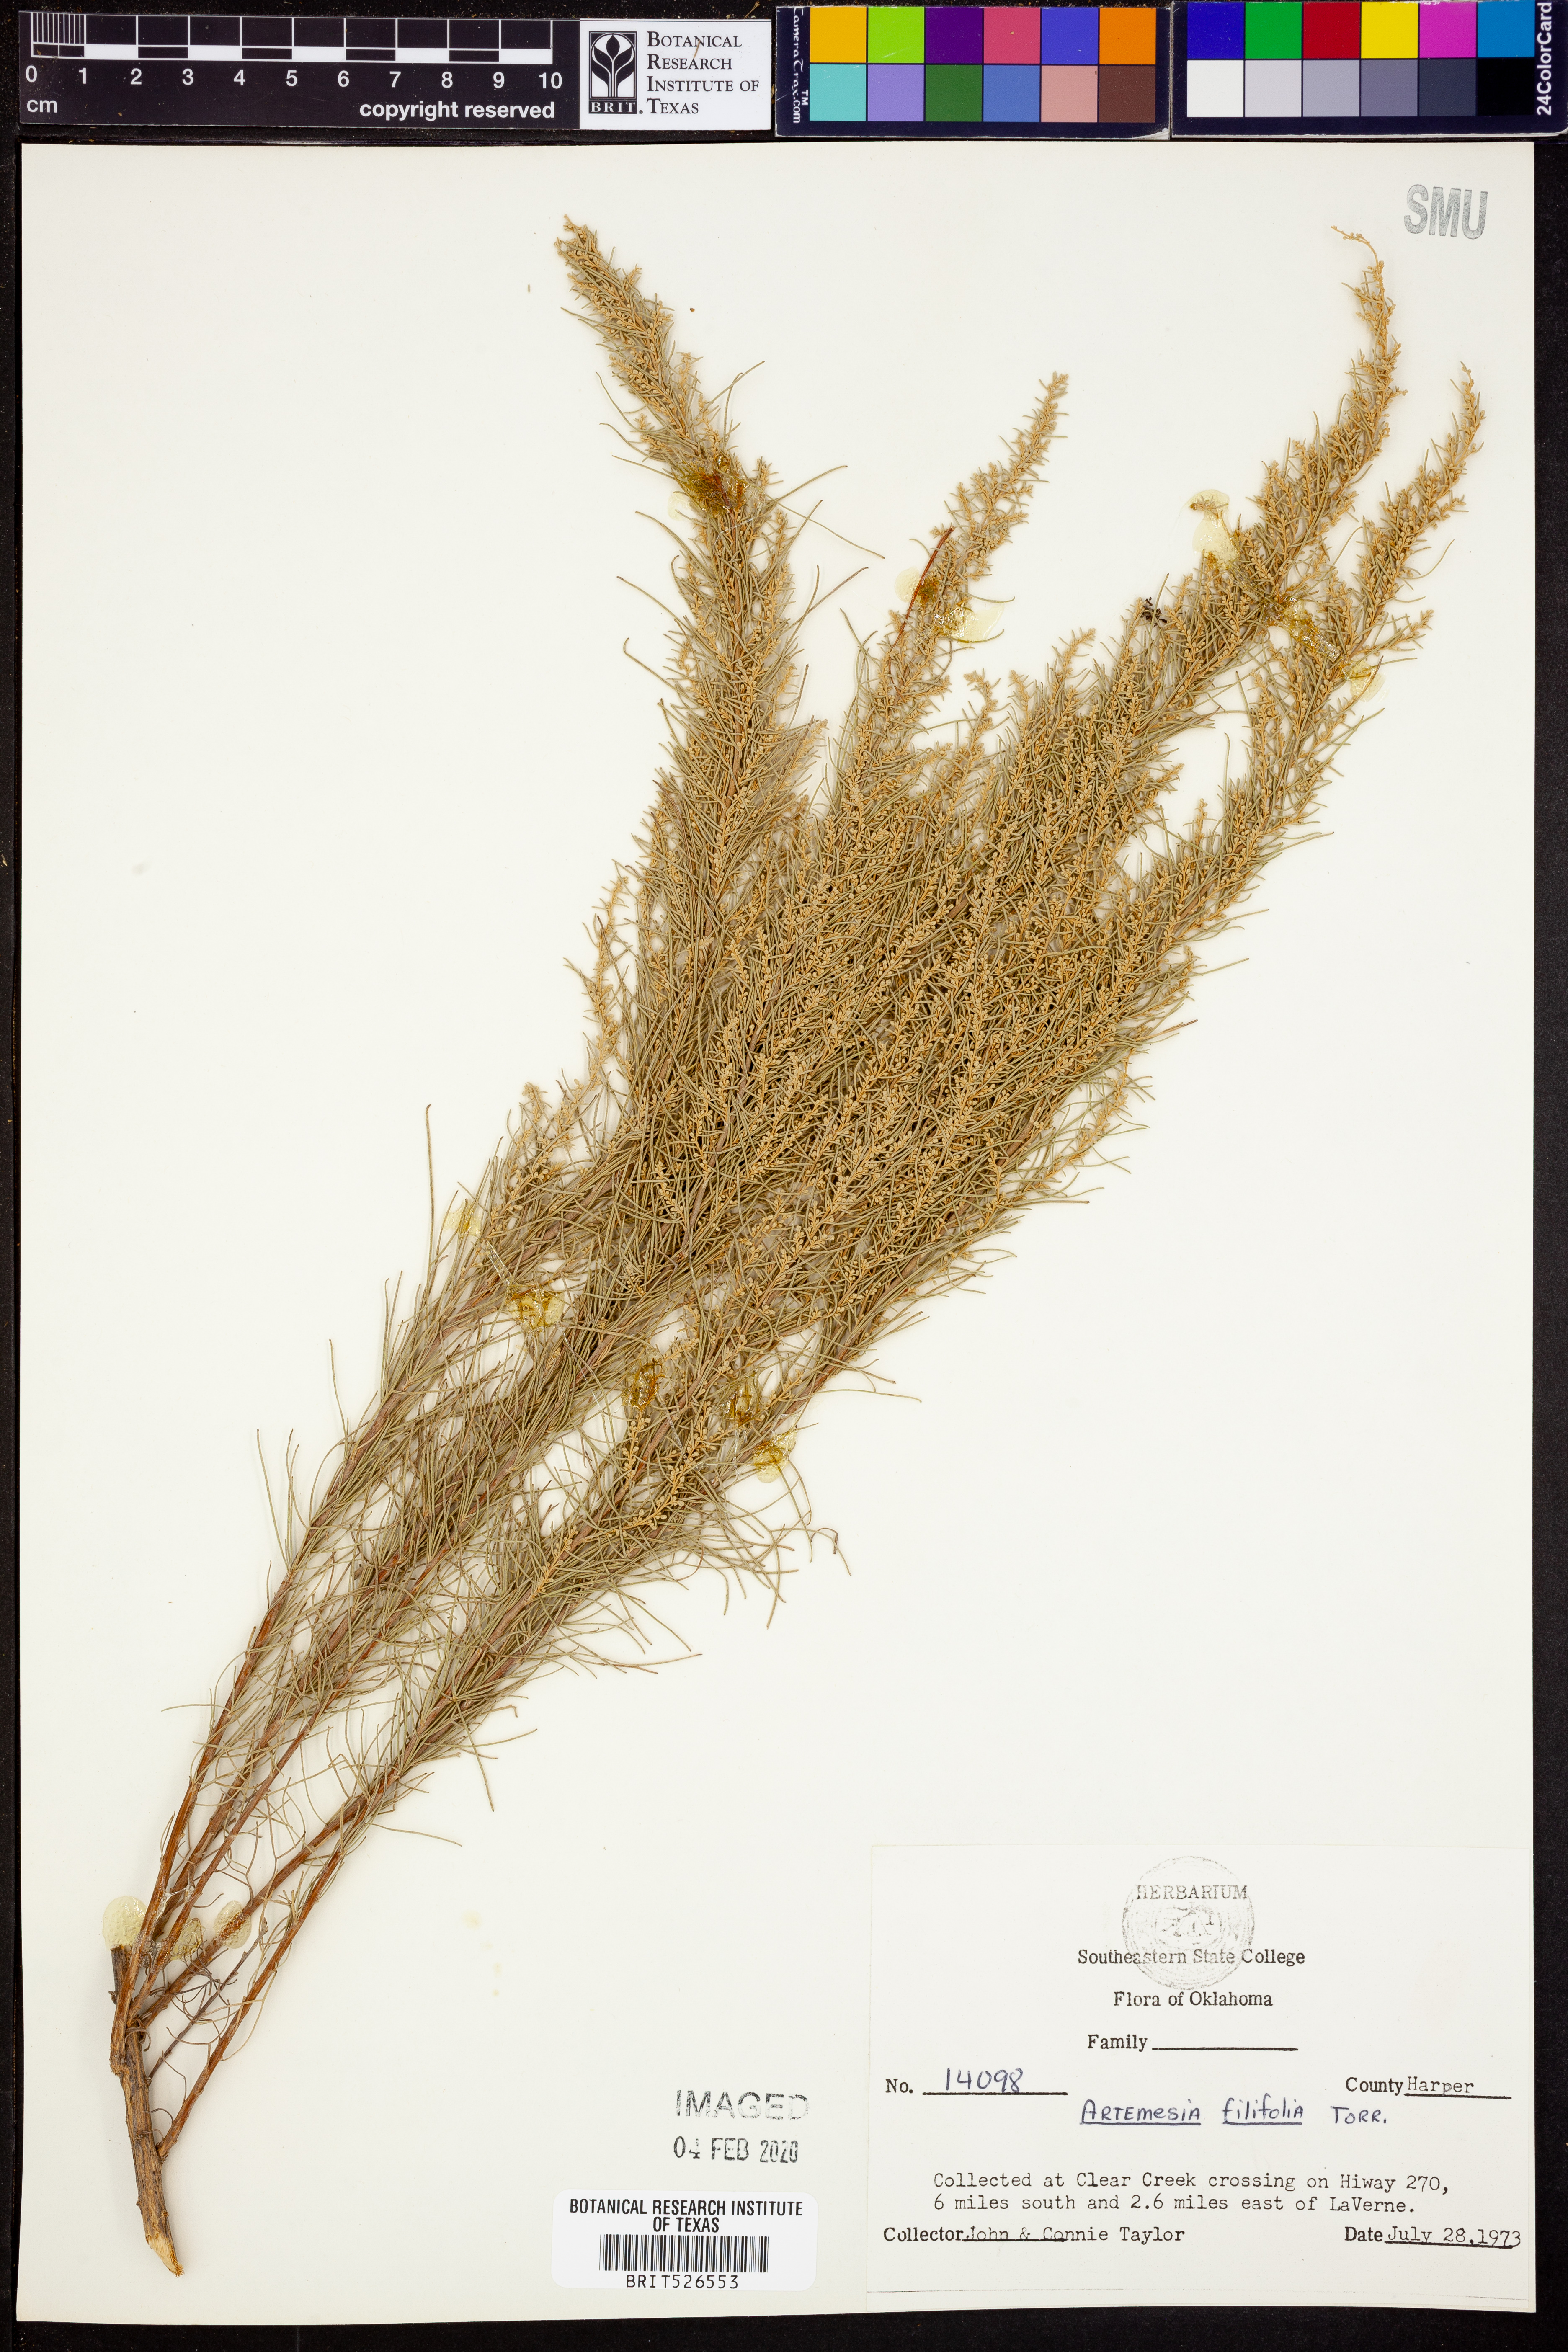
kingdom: Plantae
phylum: Tracheophyta
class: Magnoliopsida
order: Asterales
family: Asteraceae
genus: Artemisia
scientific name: Artemisia filifolia
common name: Sand-sage
